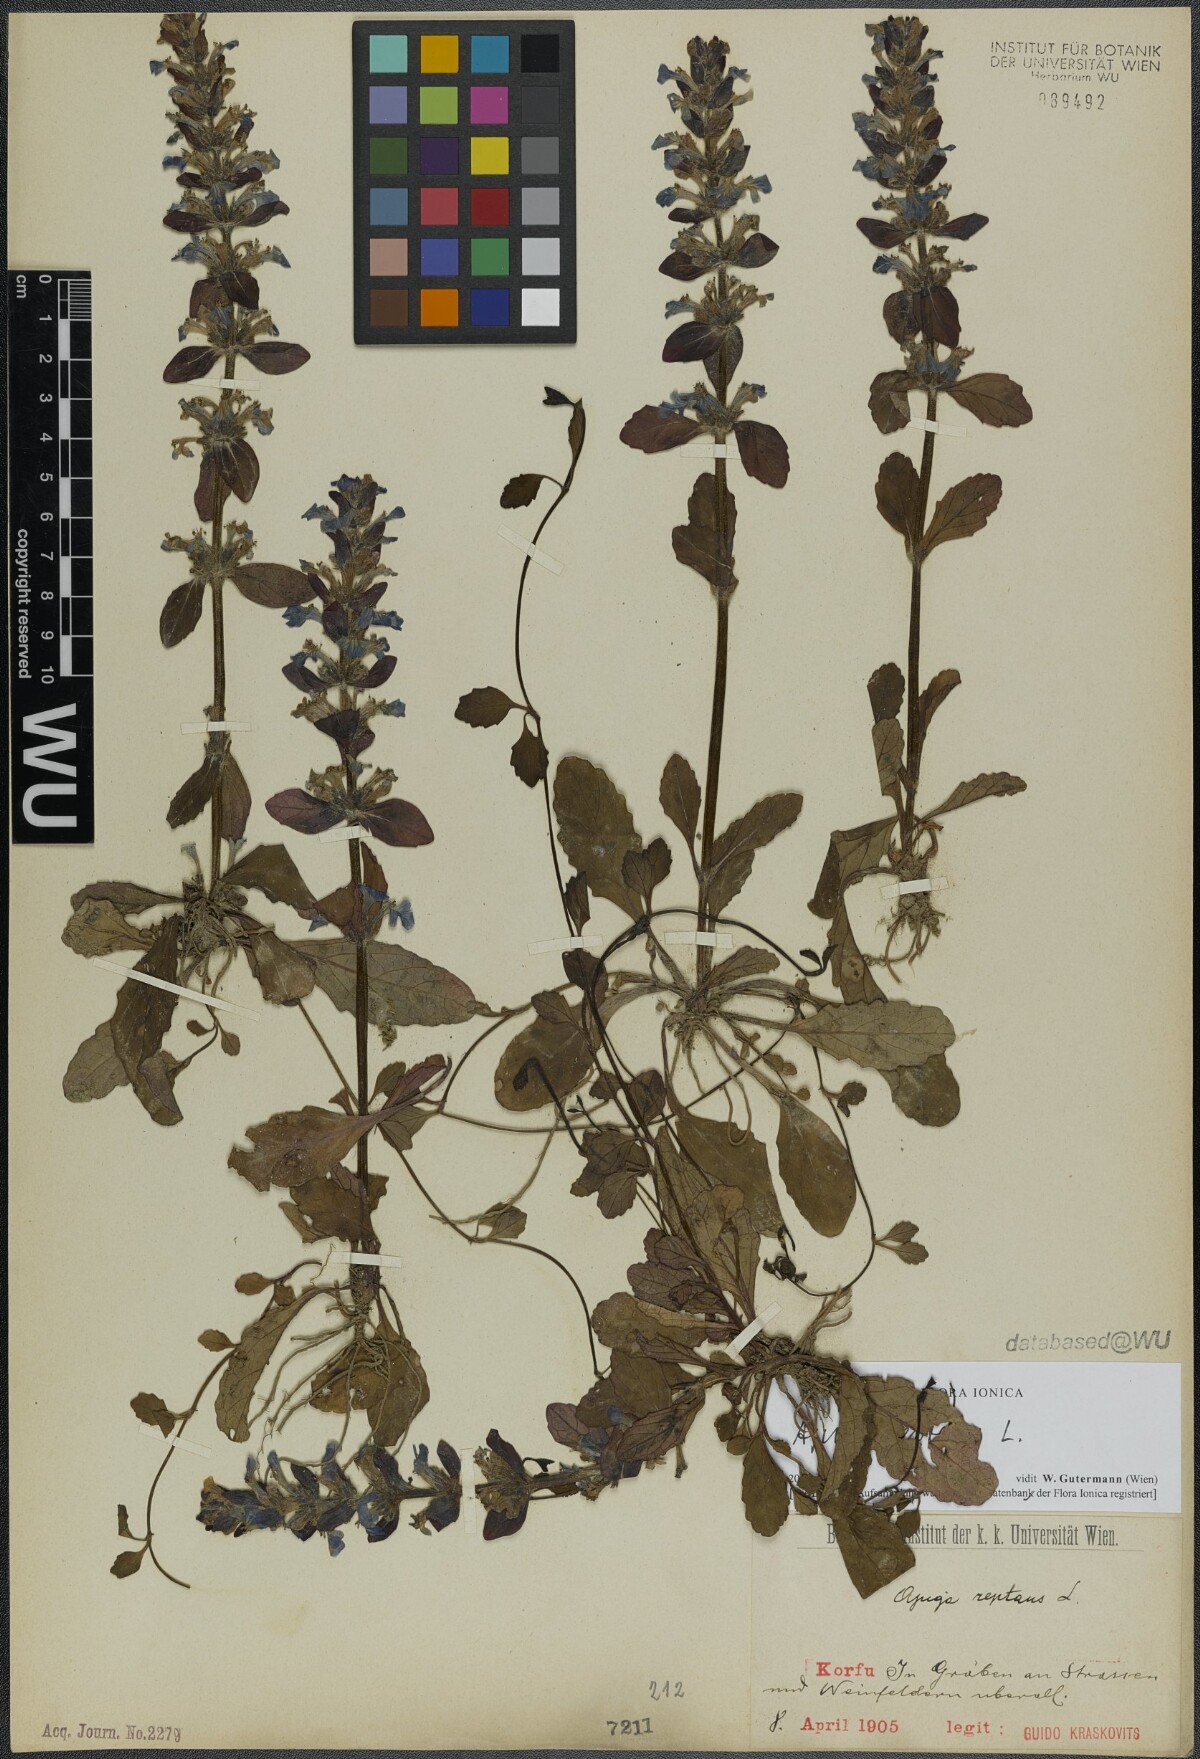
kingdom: Plantae
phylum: Tracheophyta
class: Magnoliopsida
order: Lamiales
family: Lamiaceae
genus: Ajuga
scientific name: Ajuga reptans
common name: Bugle
